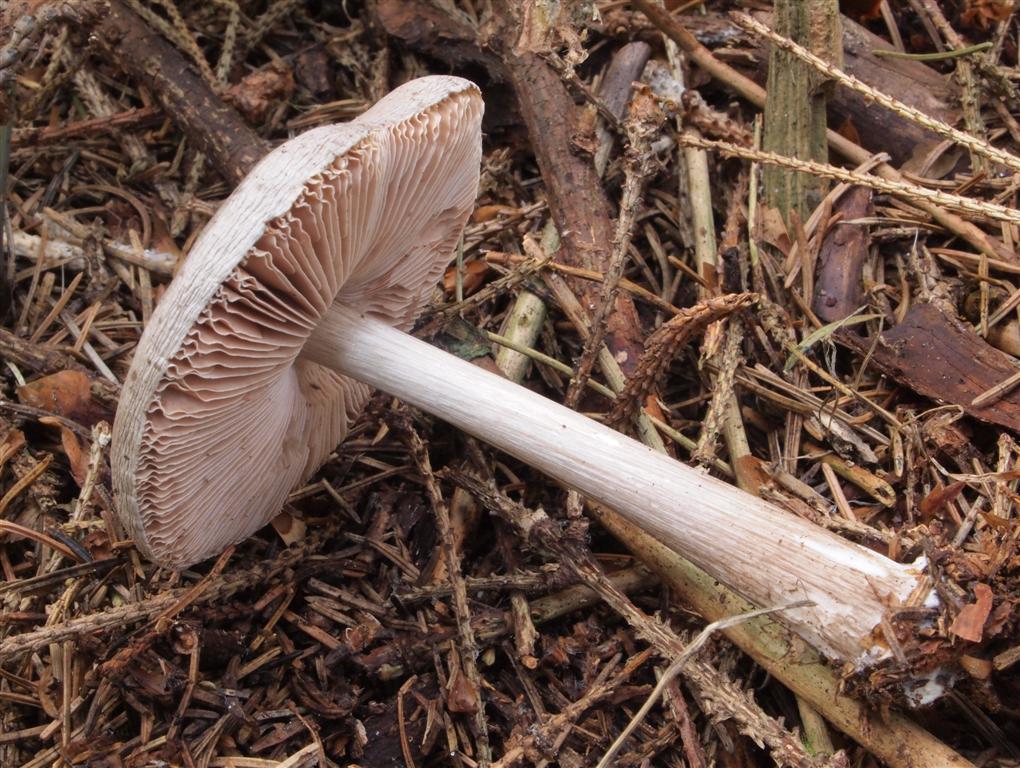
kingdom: Fungi
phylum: Basidiomycota
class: Agaricomycetes
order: Agaricales
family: Pluteaceae
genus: Pluteus
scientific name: Pluteus salicinus
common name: stiv skærmhat
